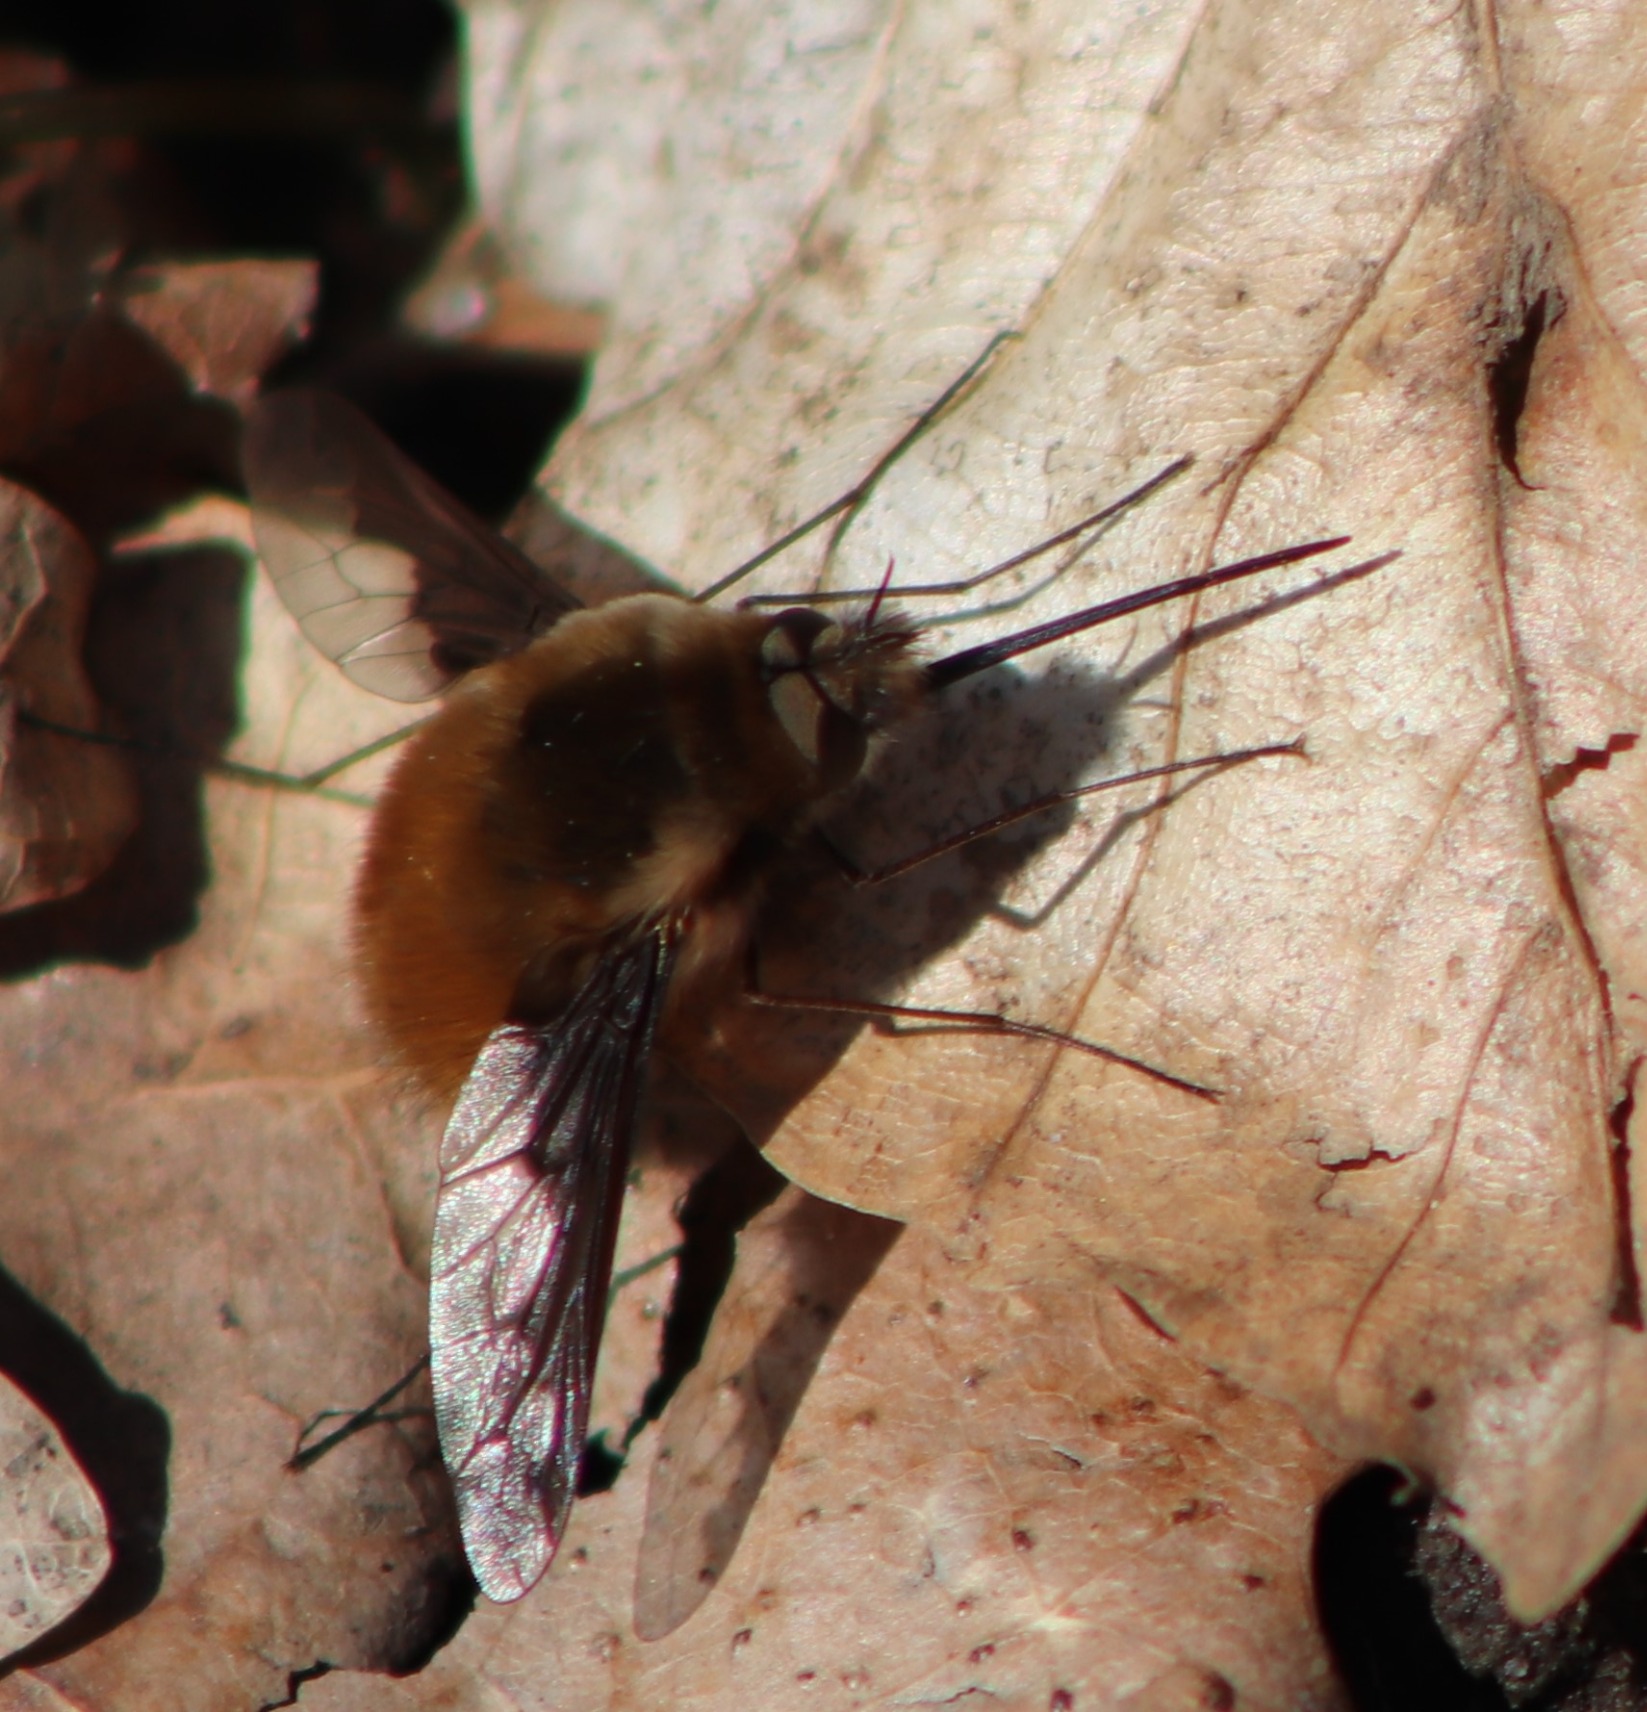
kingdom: Animalia
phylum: Arthropoda
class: Insecta
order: Diptera
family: Bombyliidae
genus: Bombylius
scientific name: Bombylius major
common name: Stor humleflue
